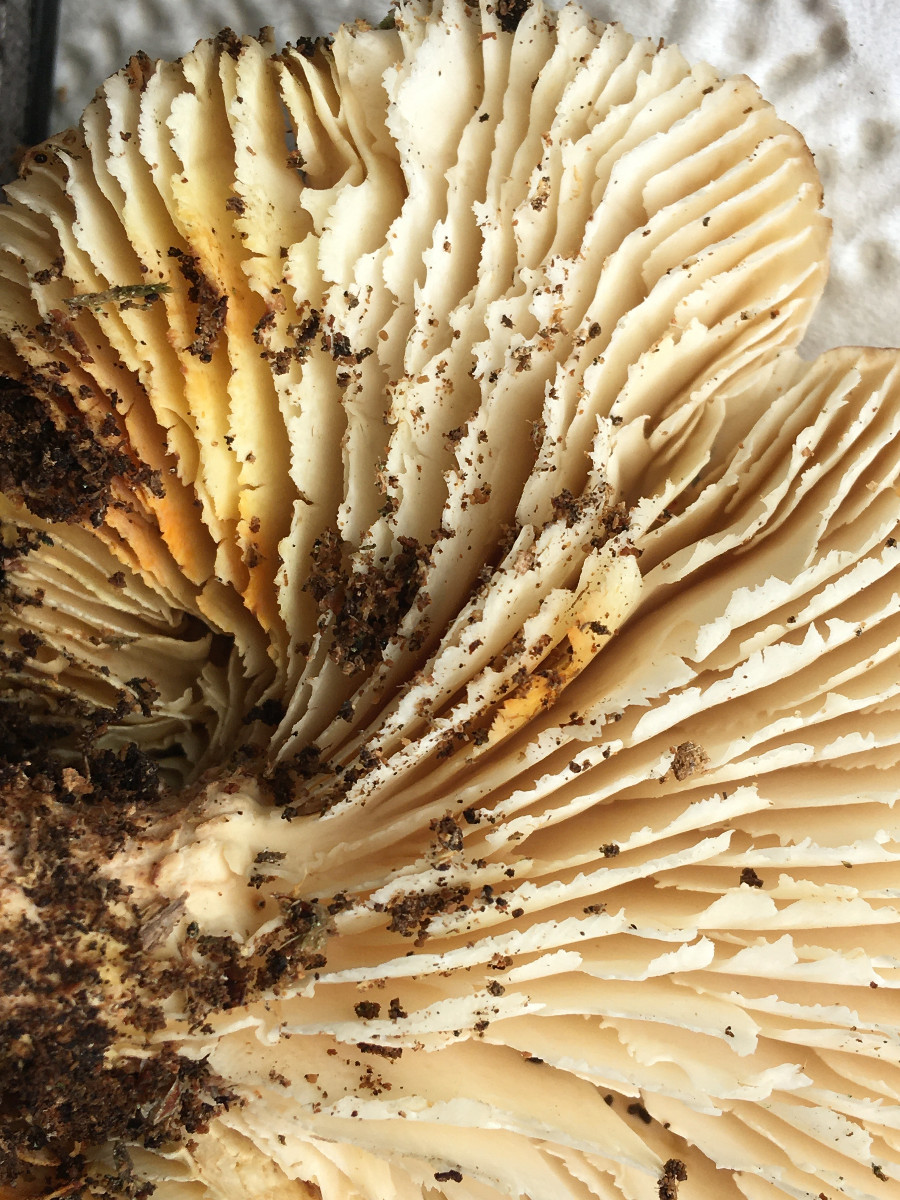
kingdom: Fungi
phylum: Basidiomycota
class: Agaricomycetes
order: Gloeophyllales
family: Gloeophyllaceae
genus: Neolentinus
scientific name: Neolentinus lepideus
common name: skællet sejhat
